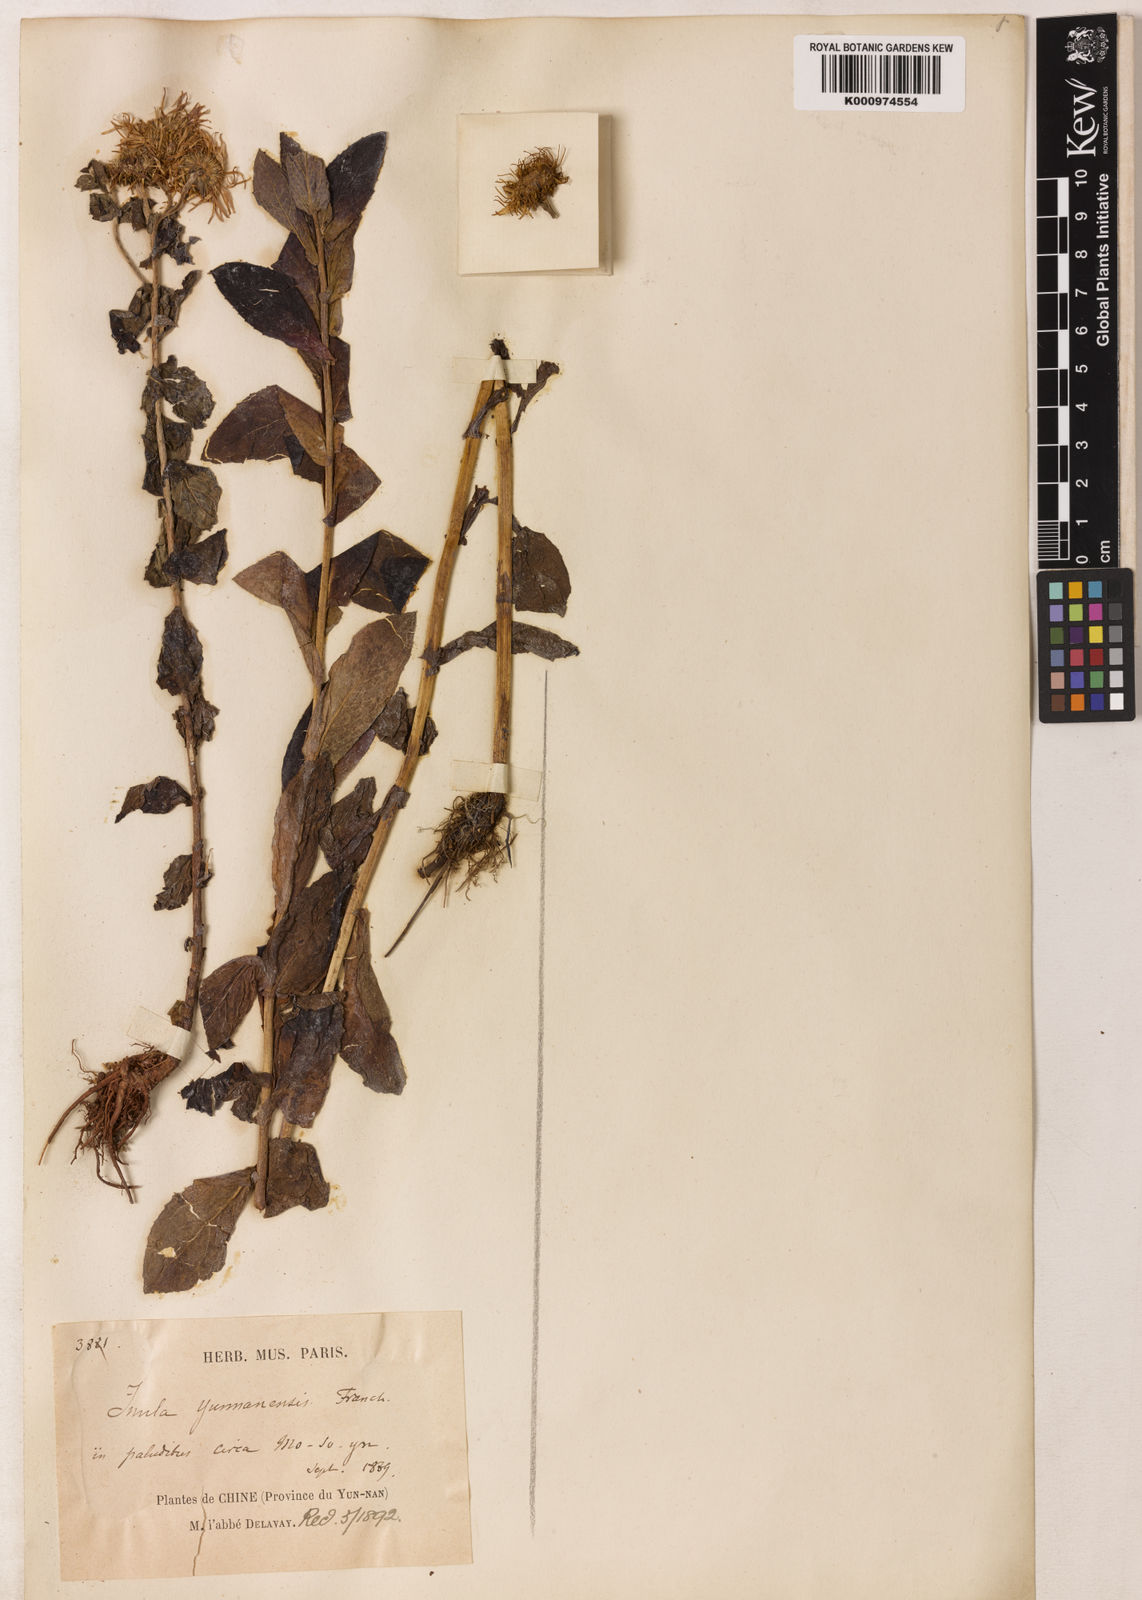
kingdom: Plantae
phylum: Tracheophyta
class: Magnoliopsida
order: Asterales
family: Asteraceae
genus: Pentanema
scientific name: Pentanema britannicum
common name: British elecampane
